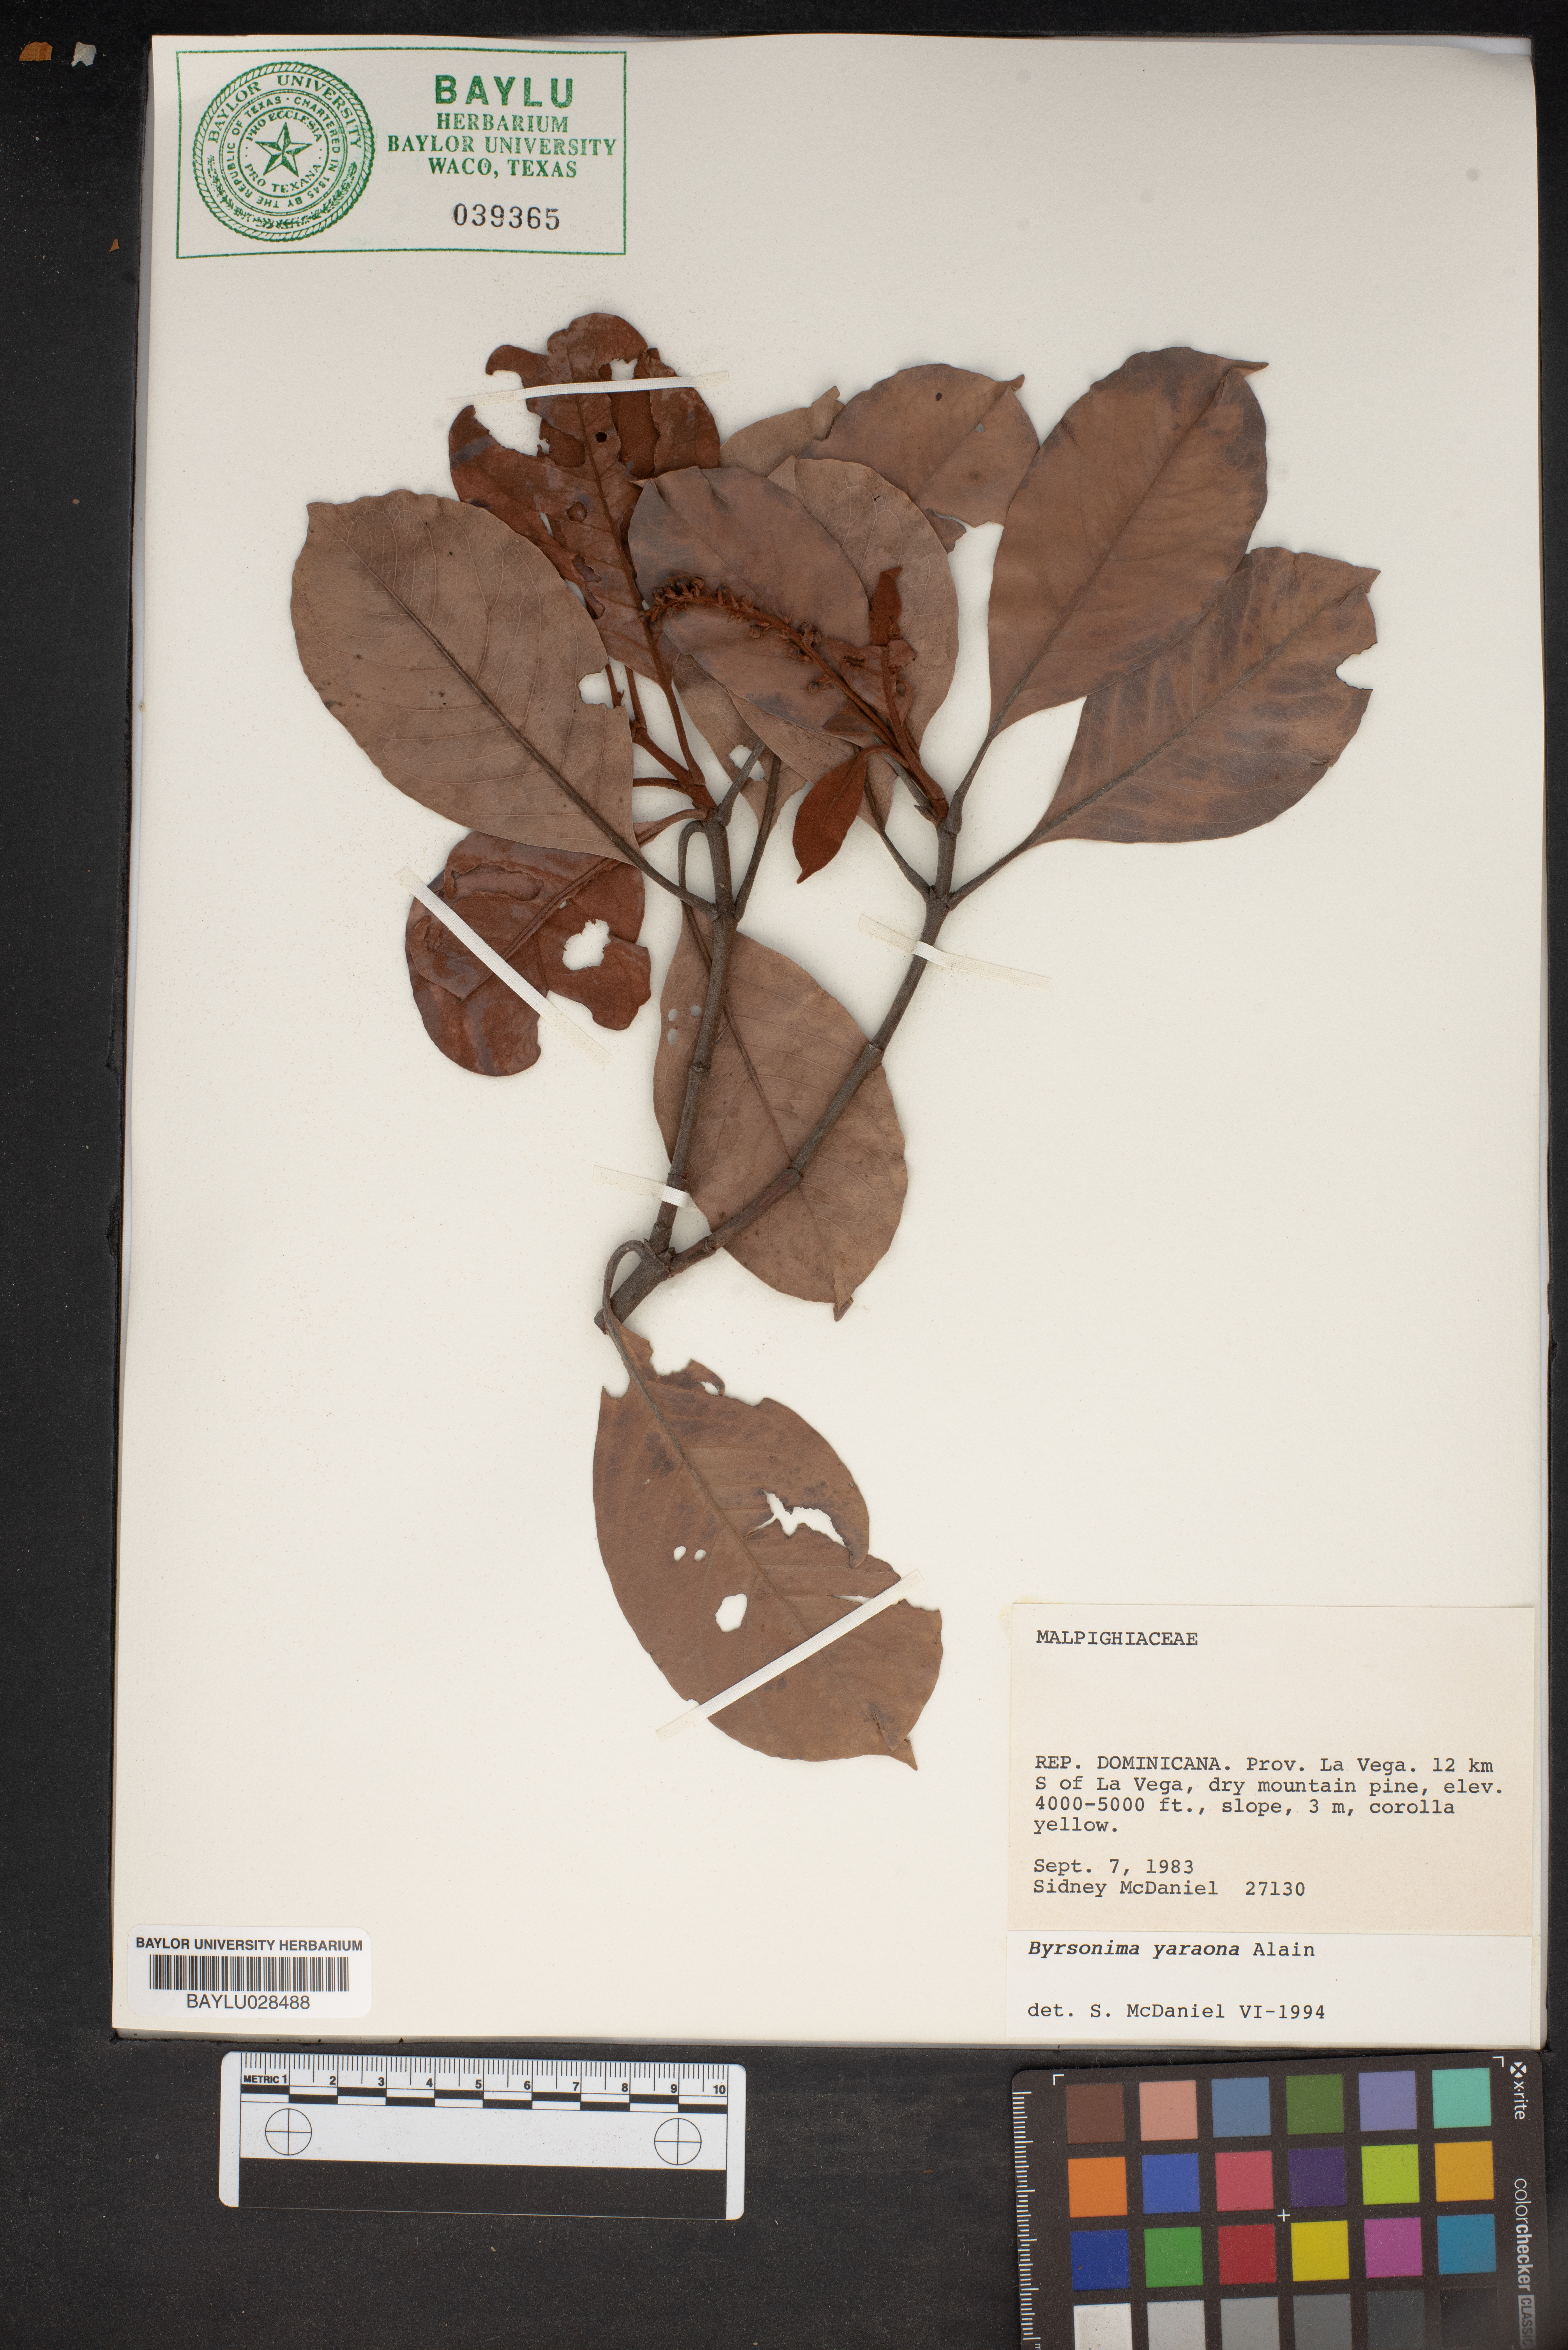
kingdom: Plantae
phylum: Tracheophyta
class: Magnoliopsida
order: Malpighiales
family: Malpighiaceae
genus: Byrsonima
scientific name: Byrsonima yaroana
